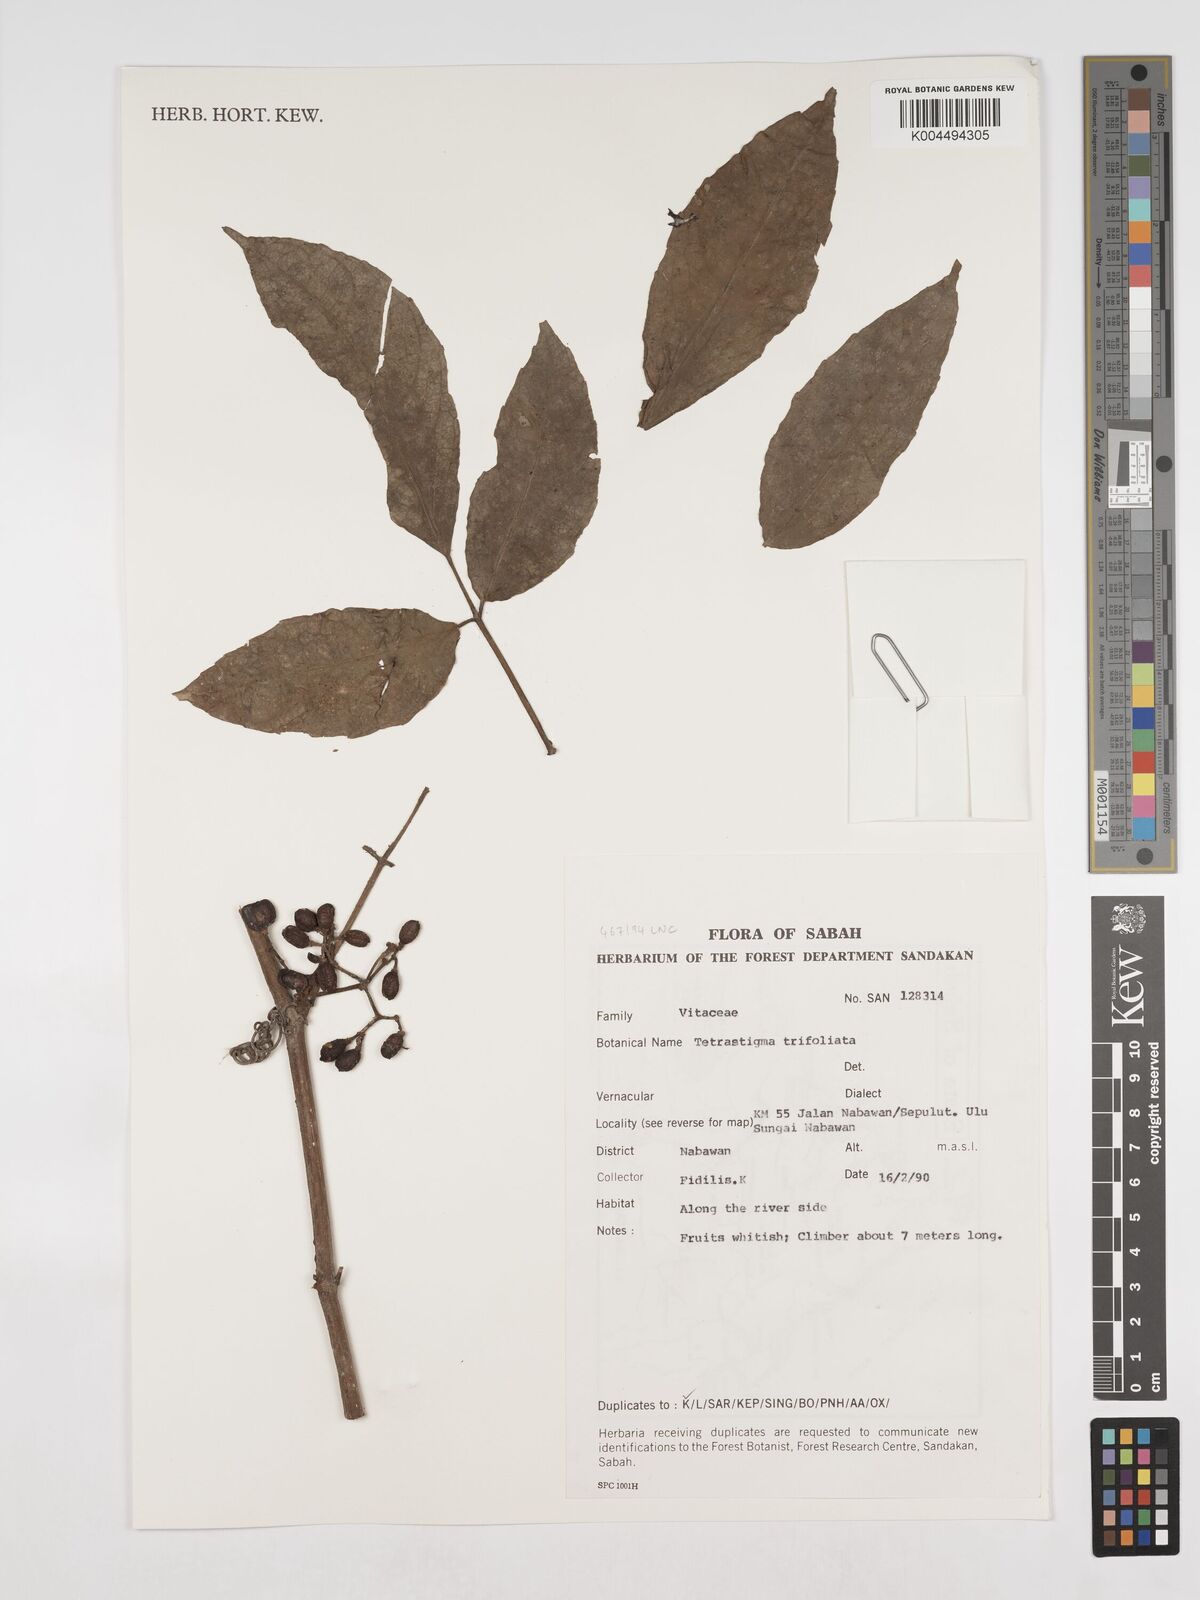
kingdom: Plantae
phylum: Tracheophyta
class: Magnoliopsida
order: Vitales
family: Vitaceae
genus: Tetrastigma
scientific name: Tetrastigma trifoliolatum
